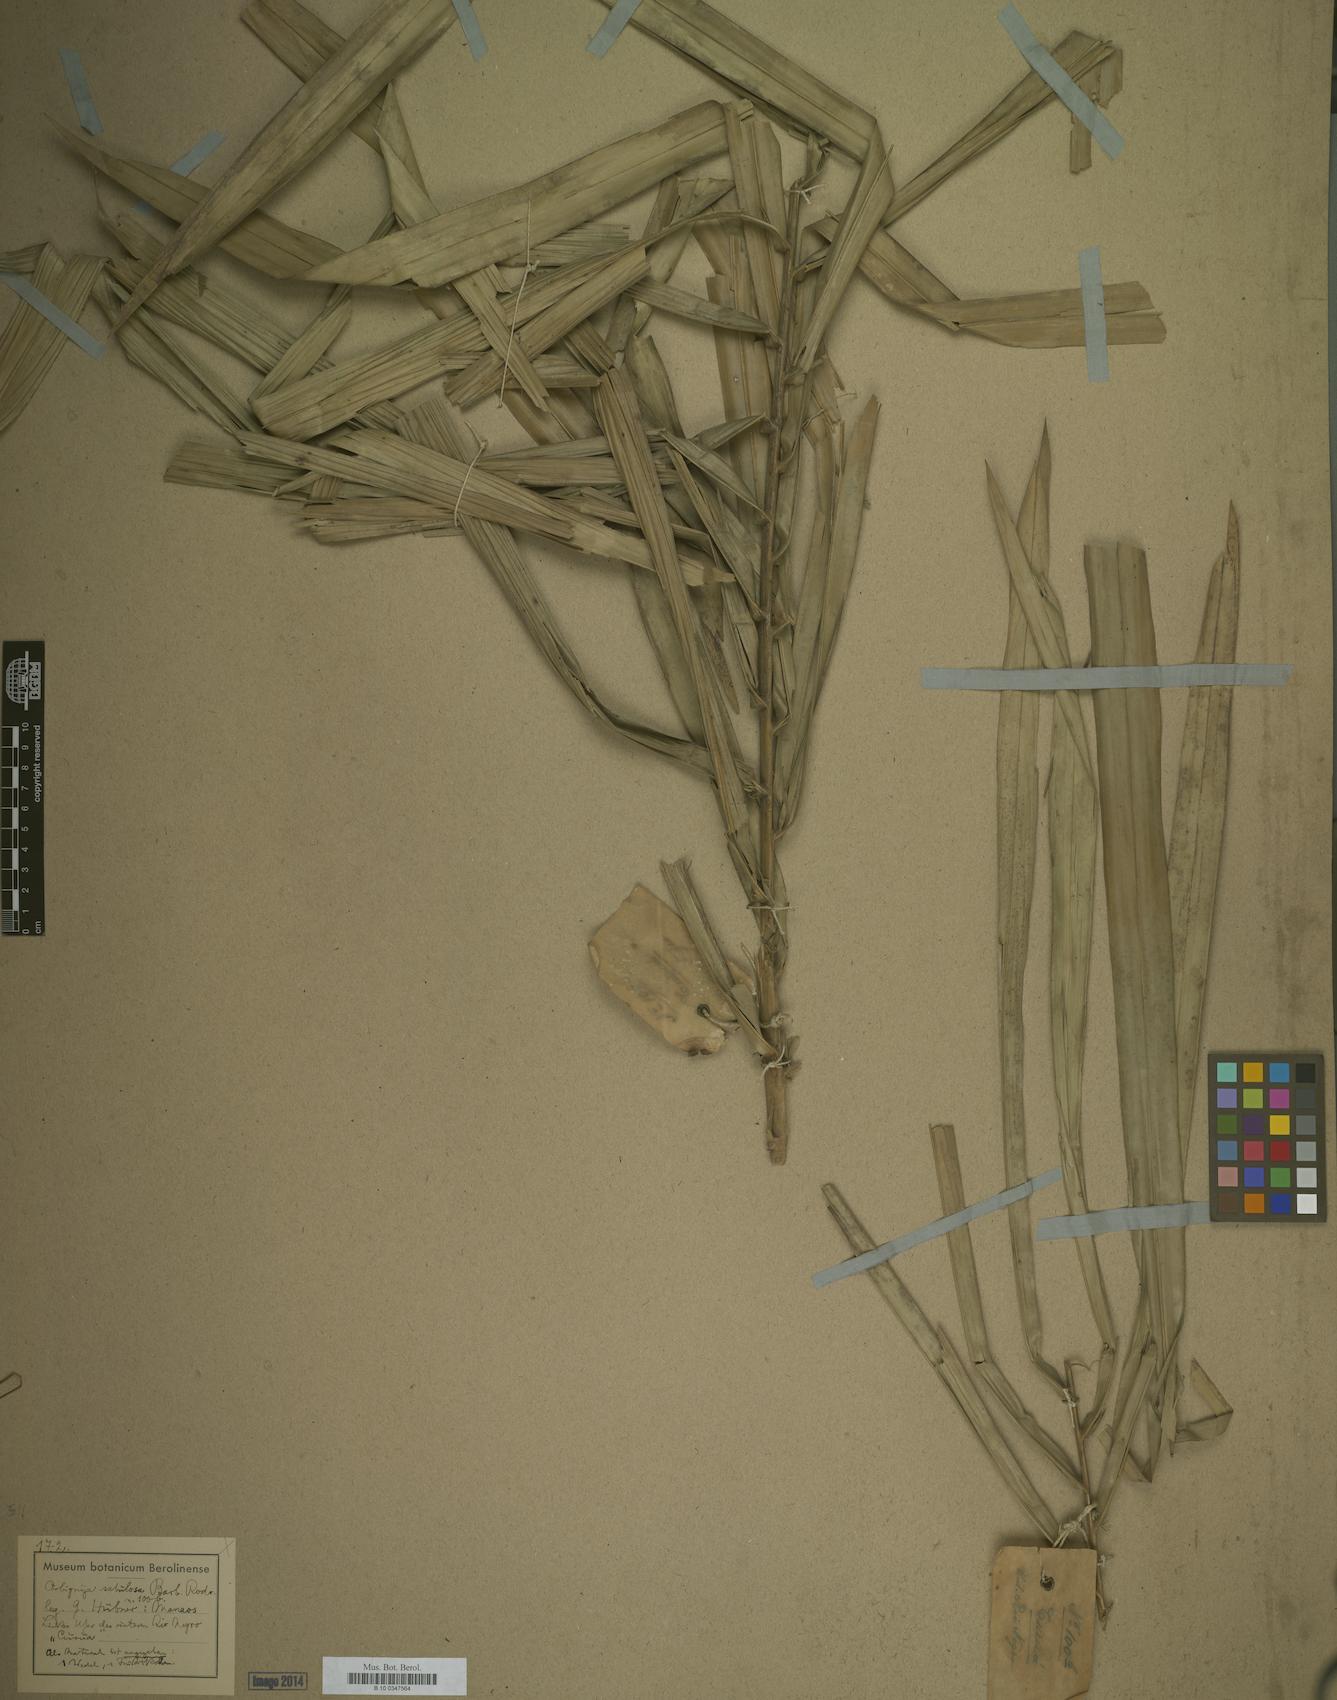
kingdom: Plantae
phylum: Tracheophyta
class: Liliopsida
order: Arecales
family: Arecaceae
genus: Attalea
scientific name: Attalea microcarpa
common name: Mountain maripa
